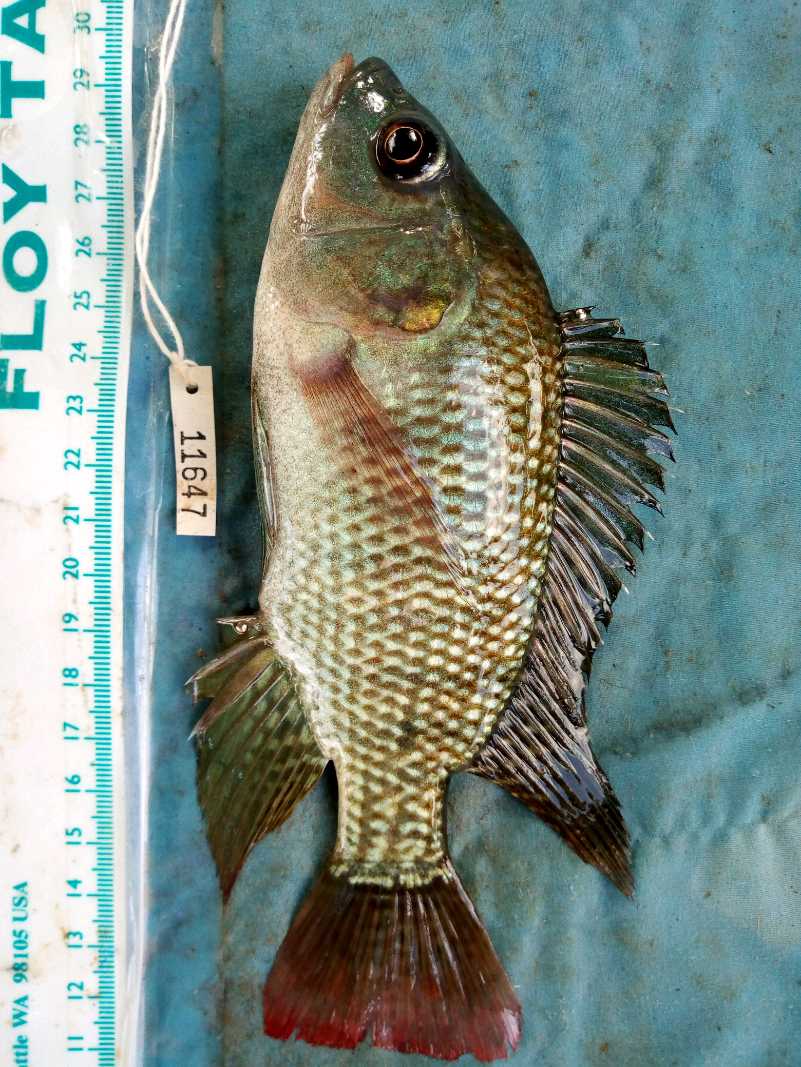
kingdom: Animalia
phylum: Chordata
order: Perciformes
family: Cichlidae
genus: Oreochromis
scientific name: Oreochromis
